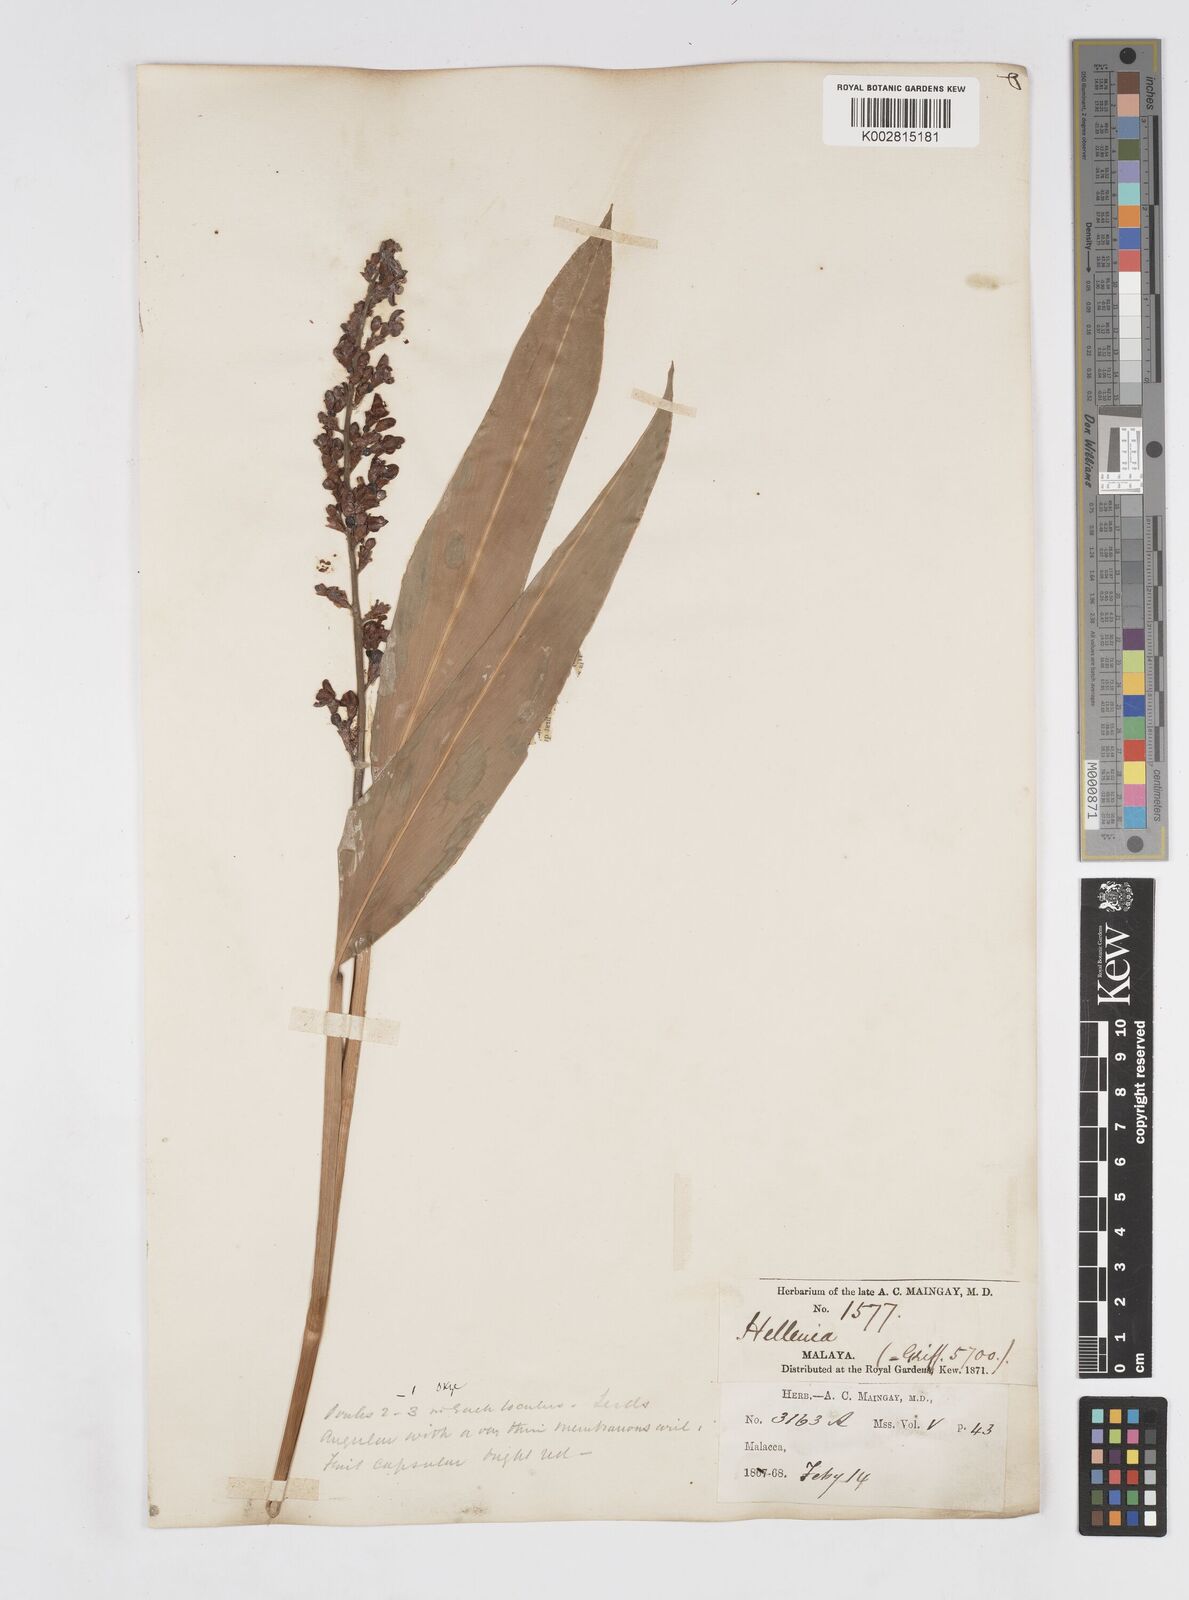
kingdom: Plantae
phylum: Tracheophyta
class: Liliopsida
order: Zingiberales
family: Zingiberaceae
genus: Alpinia
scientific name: Alpinia conchigera
